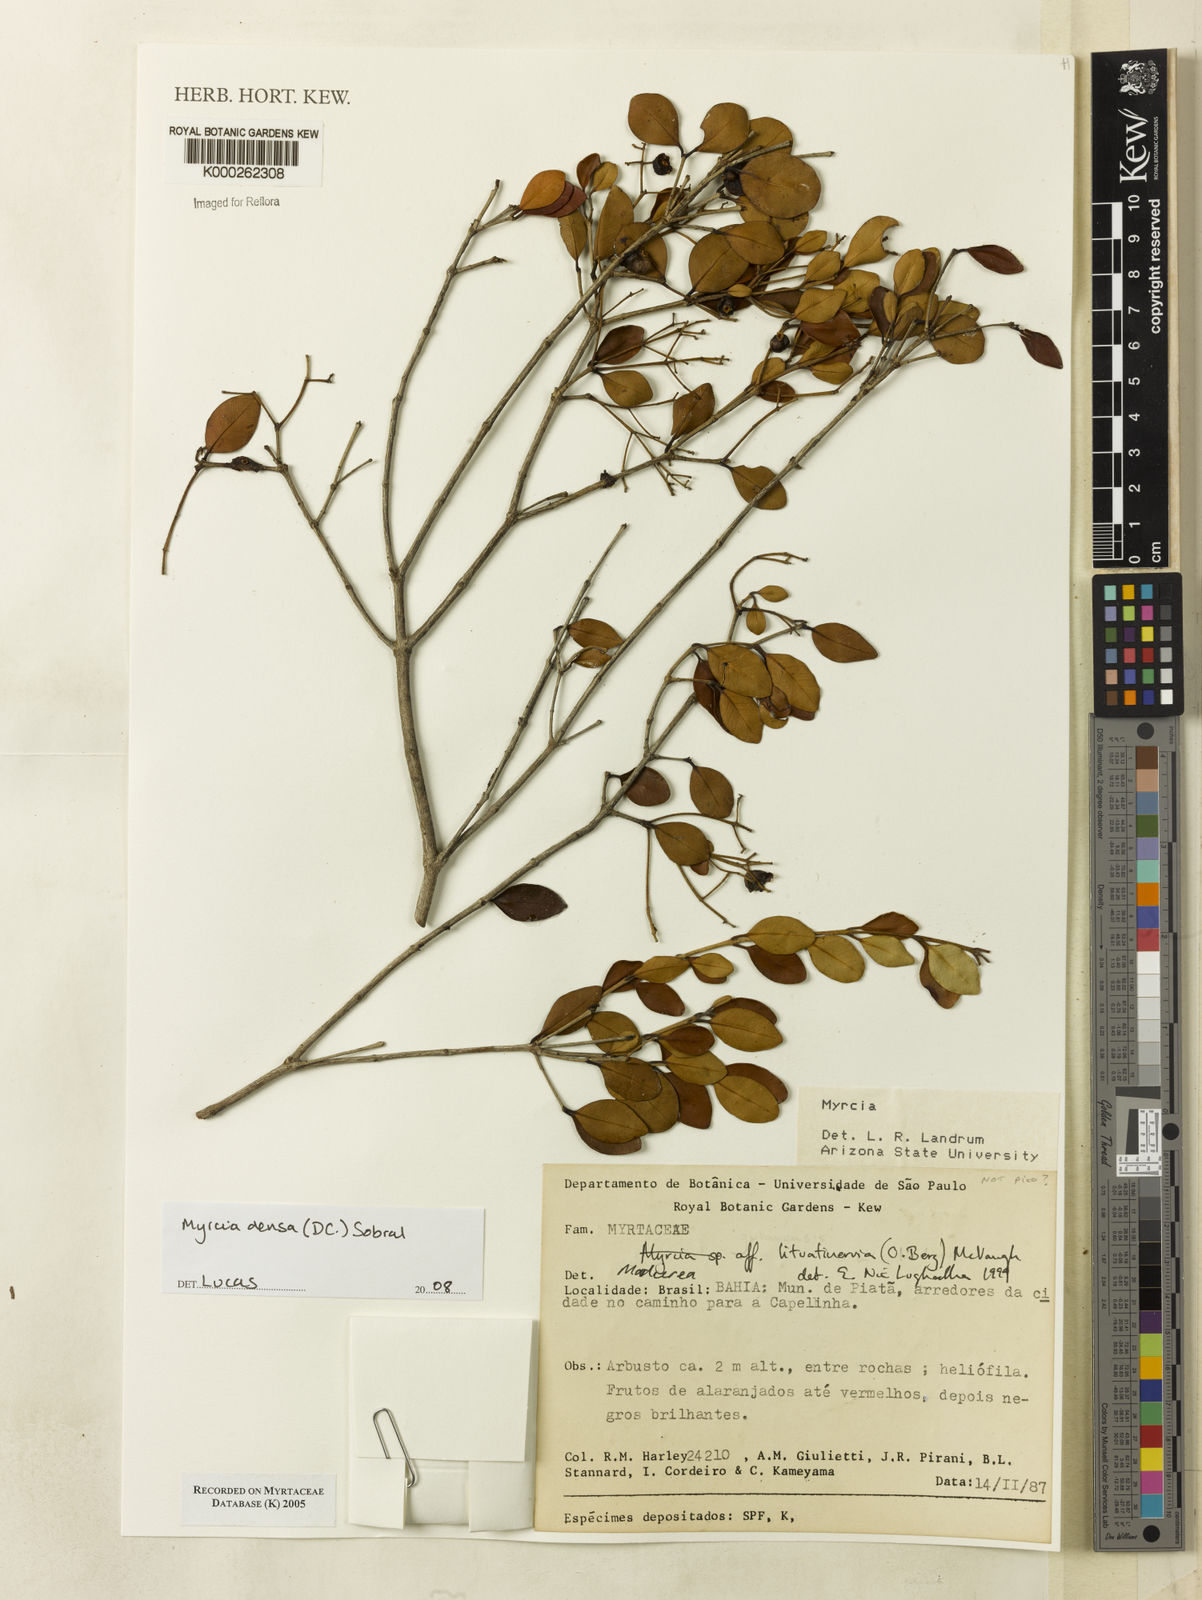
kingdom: Plantae
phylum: Tracheophyta
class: Magnoliopsida
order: Myrtales
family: Myrtaceae
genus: Myrcia
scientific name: Myrcia lituatinervia
